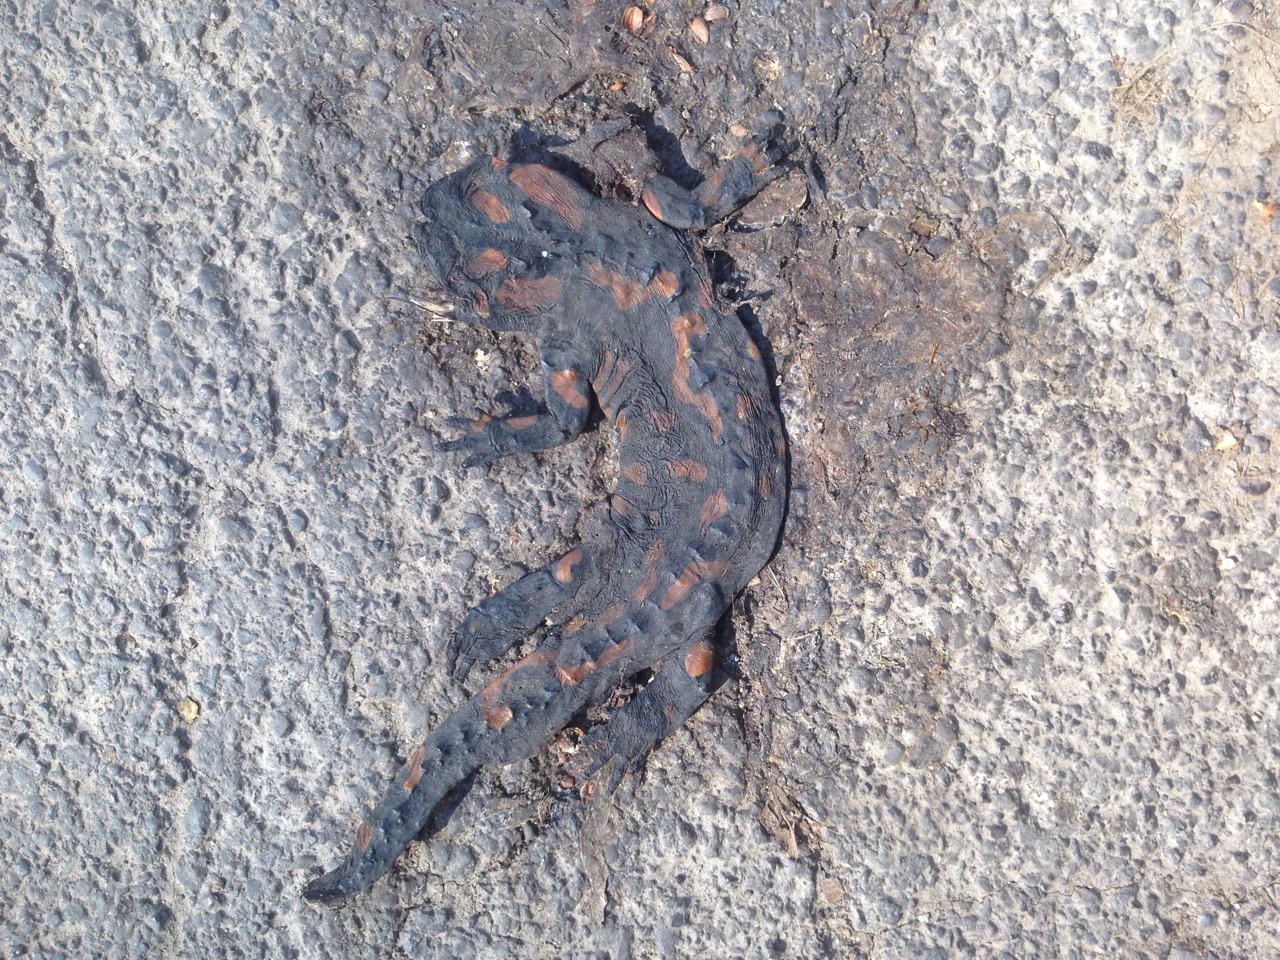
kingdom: Animalia
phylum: Chordata
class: Amphibia
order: Caudata
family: Salamandridae
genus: Salamandra
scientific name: Salamandra salamandra
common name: Fire salamander
